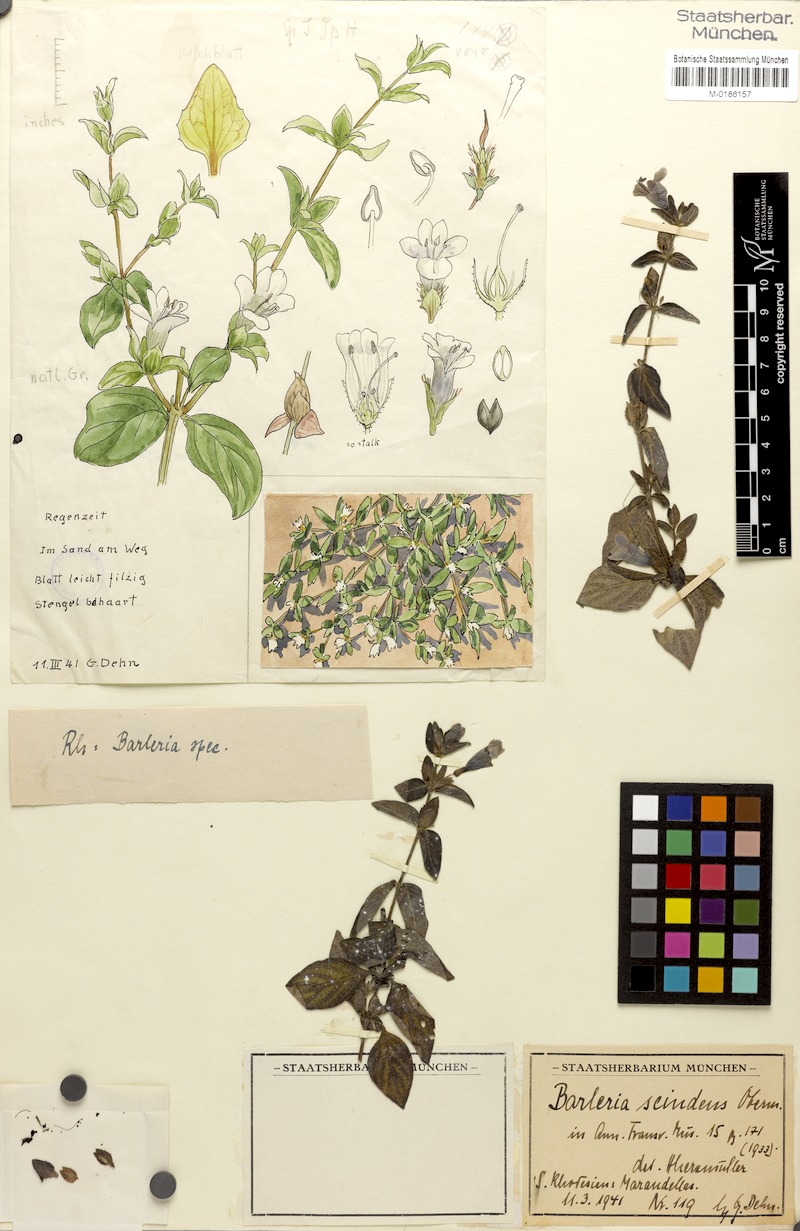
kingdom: Plantae
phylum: Tracheophyta
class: Magnoliopsida
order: Lamiales
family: Acanthaceae
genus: Barleria
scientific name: Barleria ventricosa
